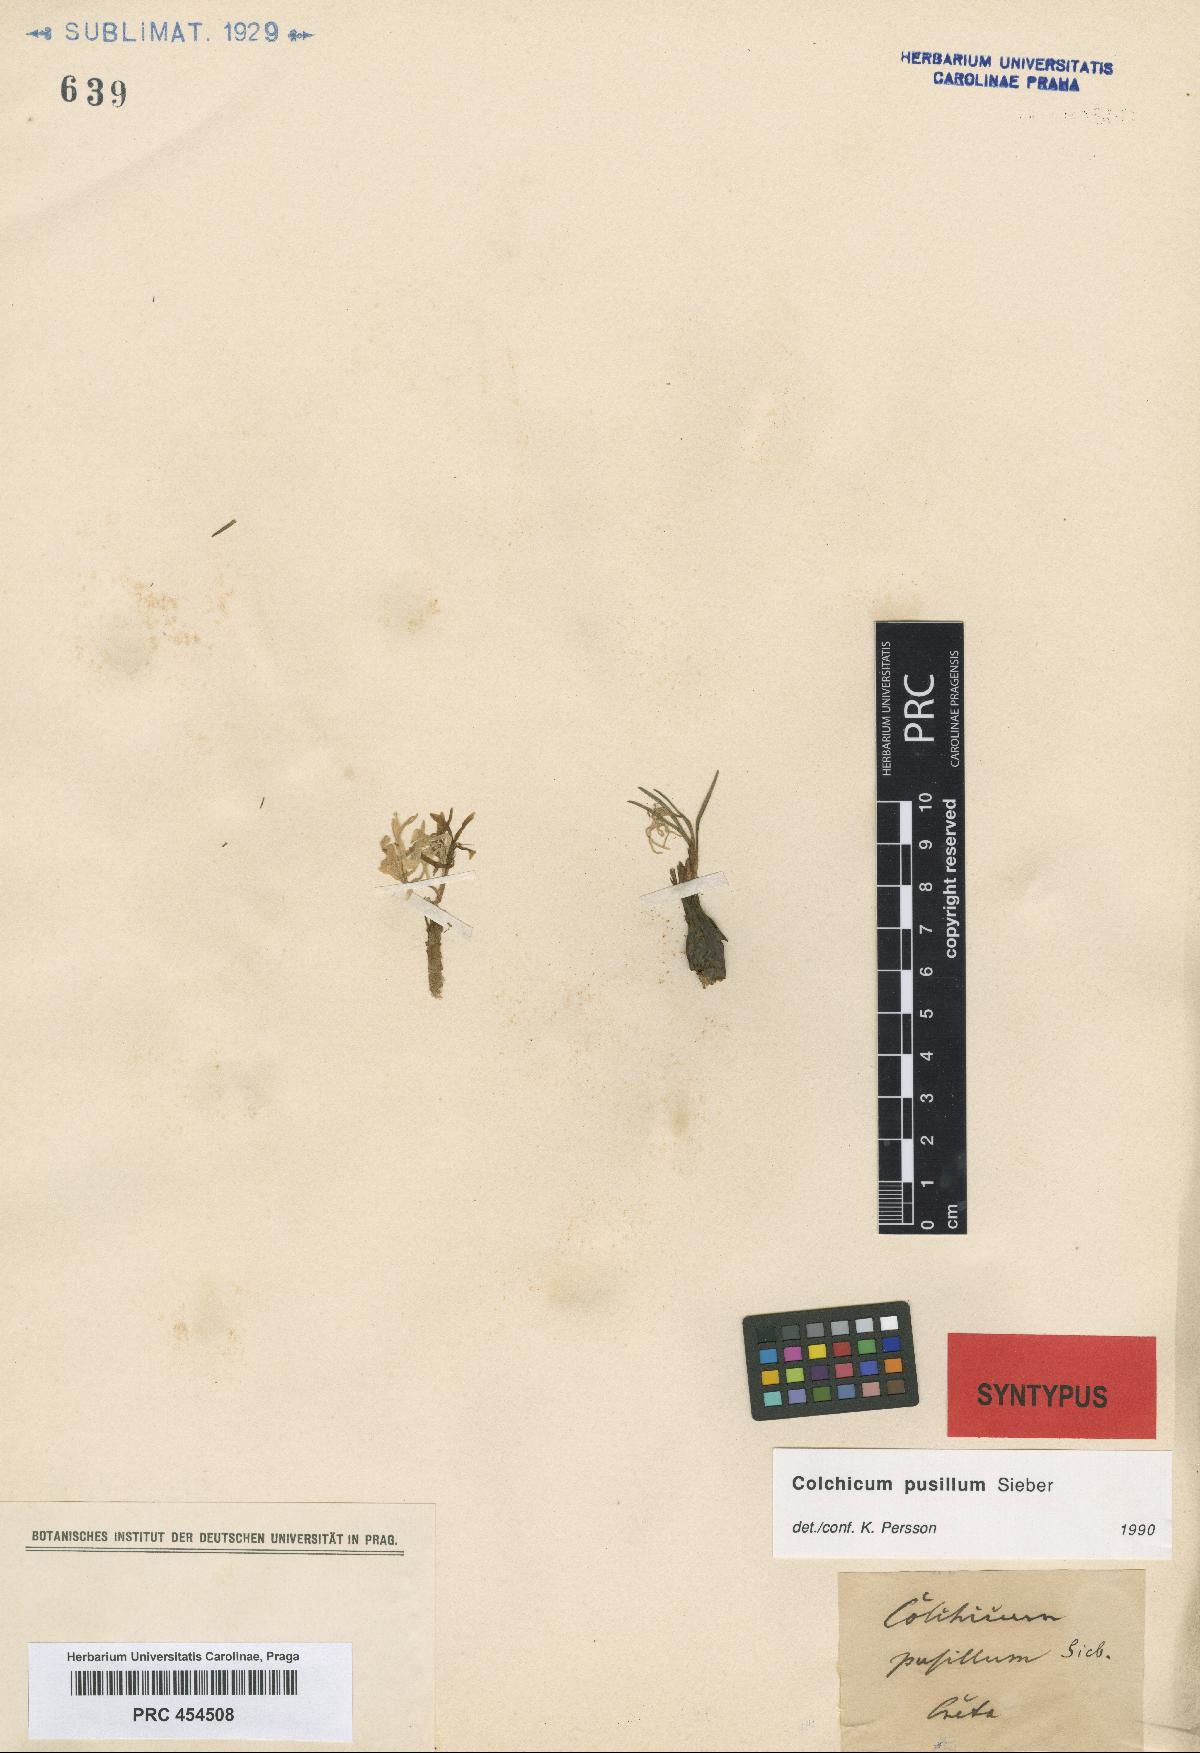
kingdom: Plantae
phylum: Tracheophyta
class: Liliopsida
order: Liliales
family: Colchicaceae
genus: Colchicum
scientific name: Colchicum pusillum
